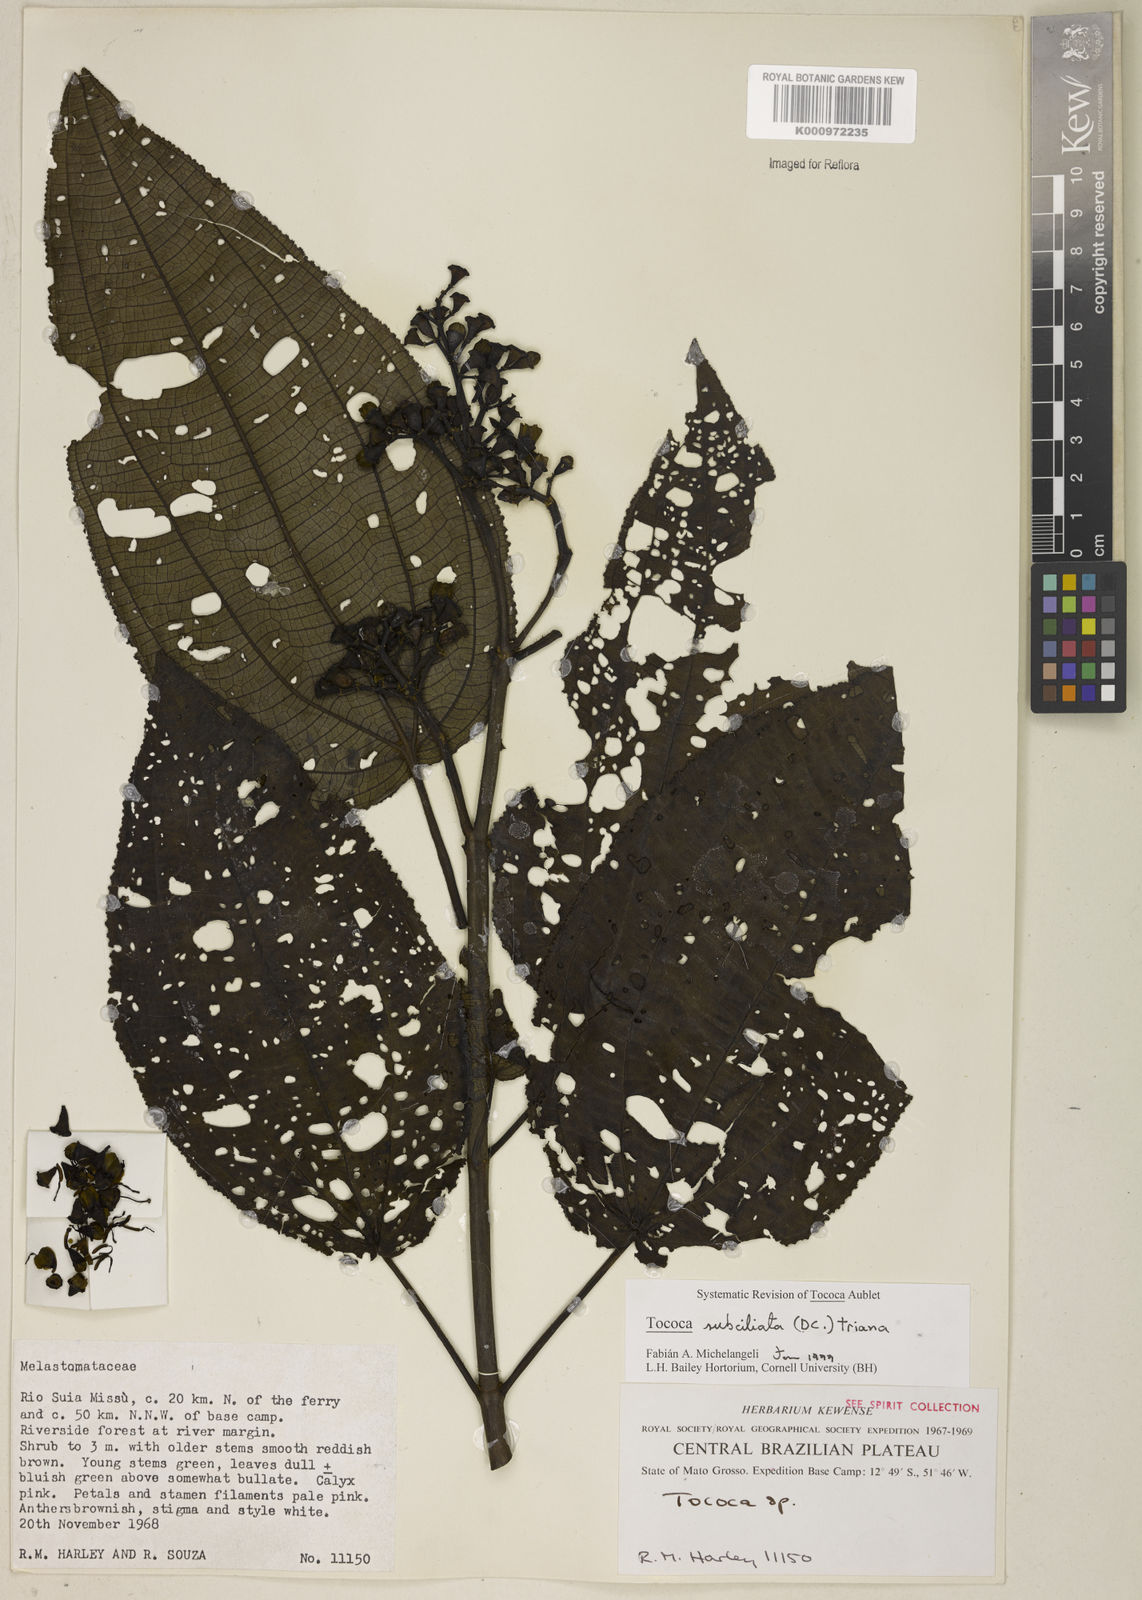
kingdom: Plantae
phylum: Tracheophyta
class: Magnoliopsida
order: Myrtales
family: Melastomataceae
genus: Miconia
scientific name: Miconia subciliata
